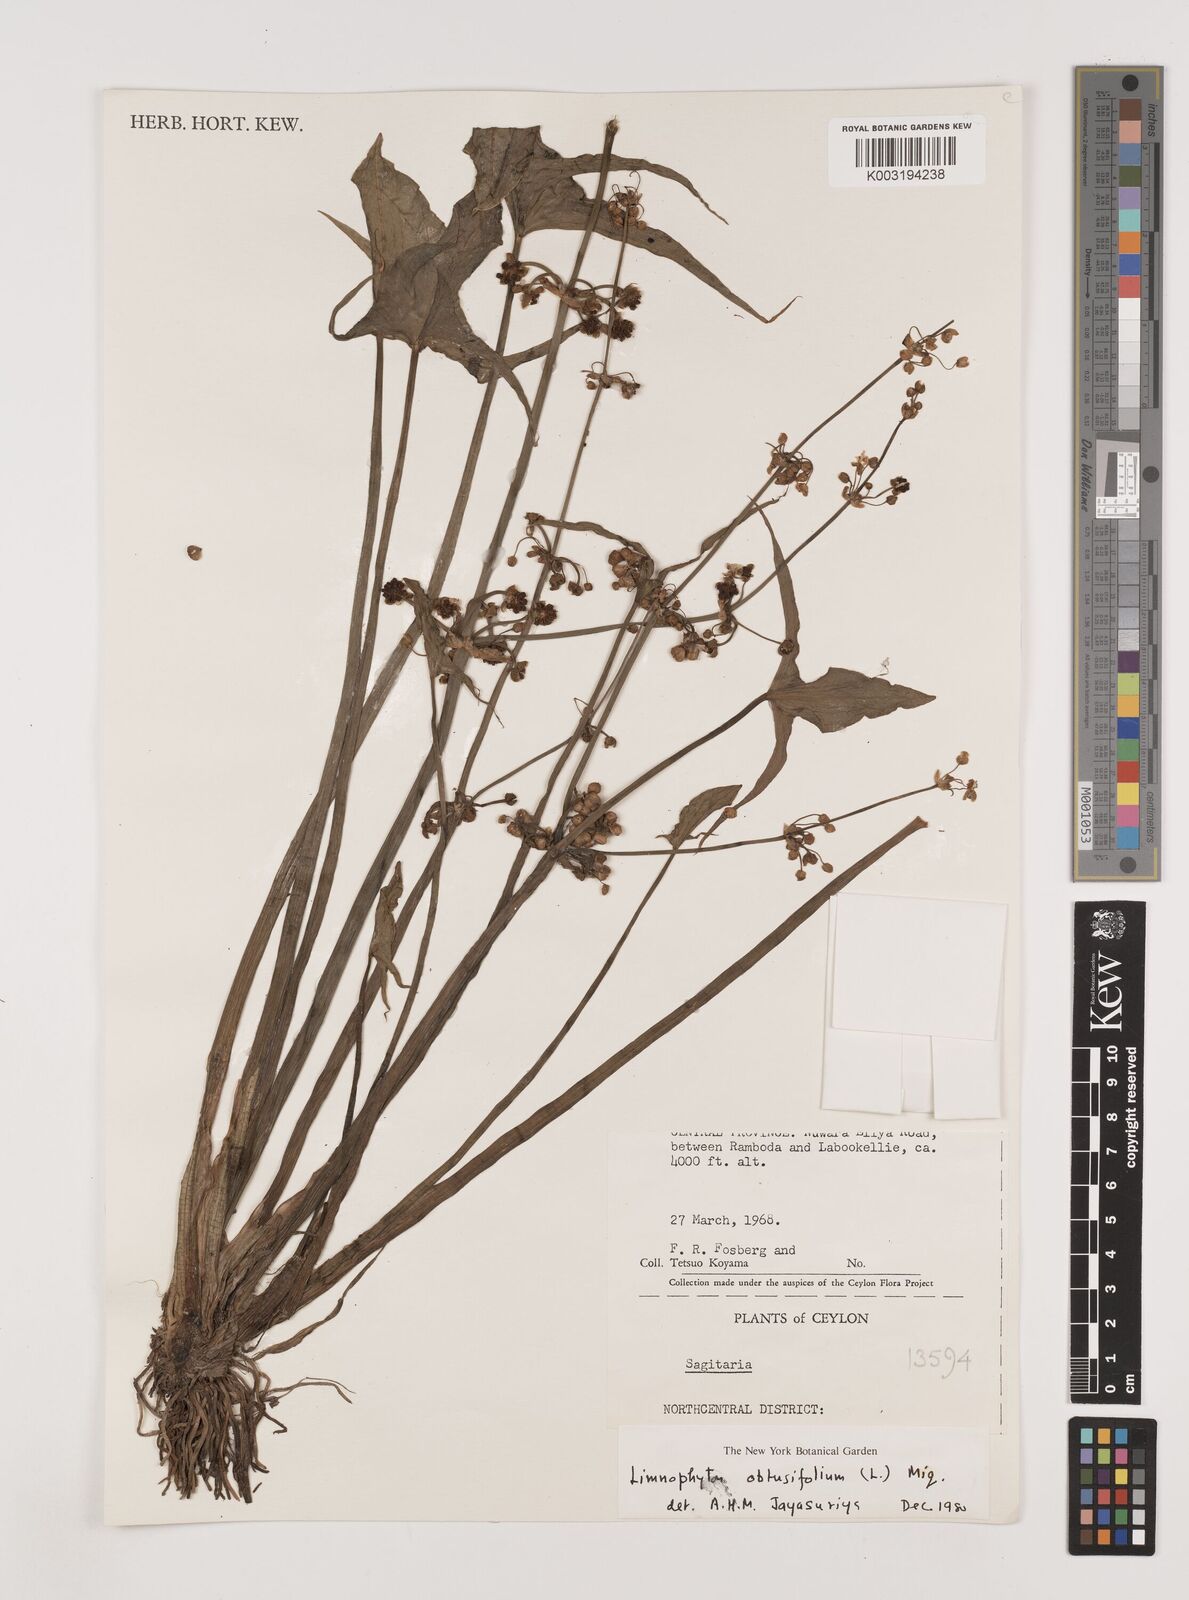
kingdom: Plantae
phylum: Tracheophyta
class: Liliopsida
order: Alismatales
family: Alismataceae
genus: Limnophyton
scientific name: Limnophyton obtusifolium
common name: Arrow head
